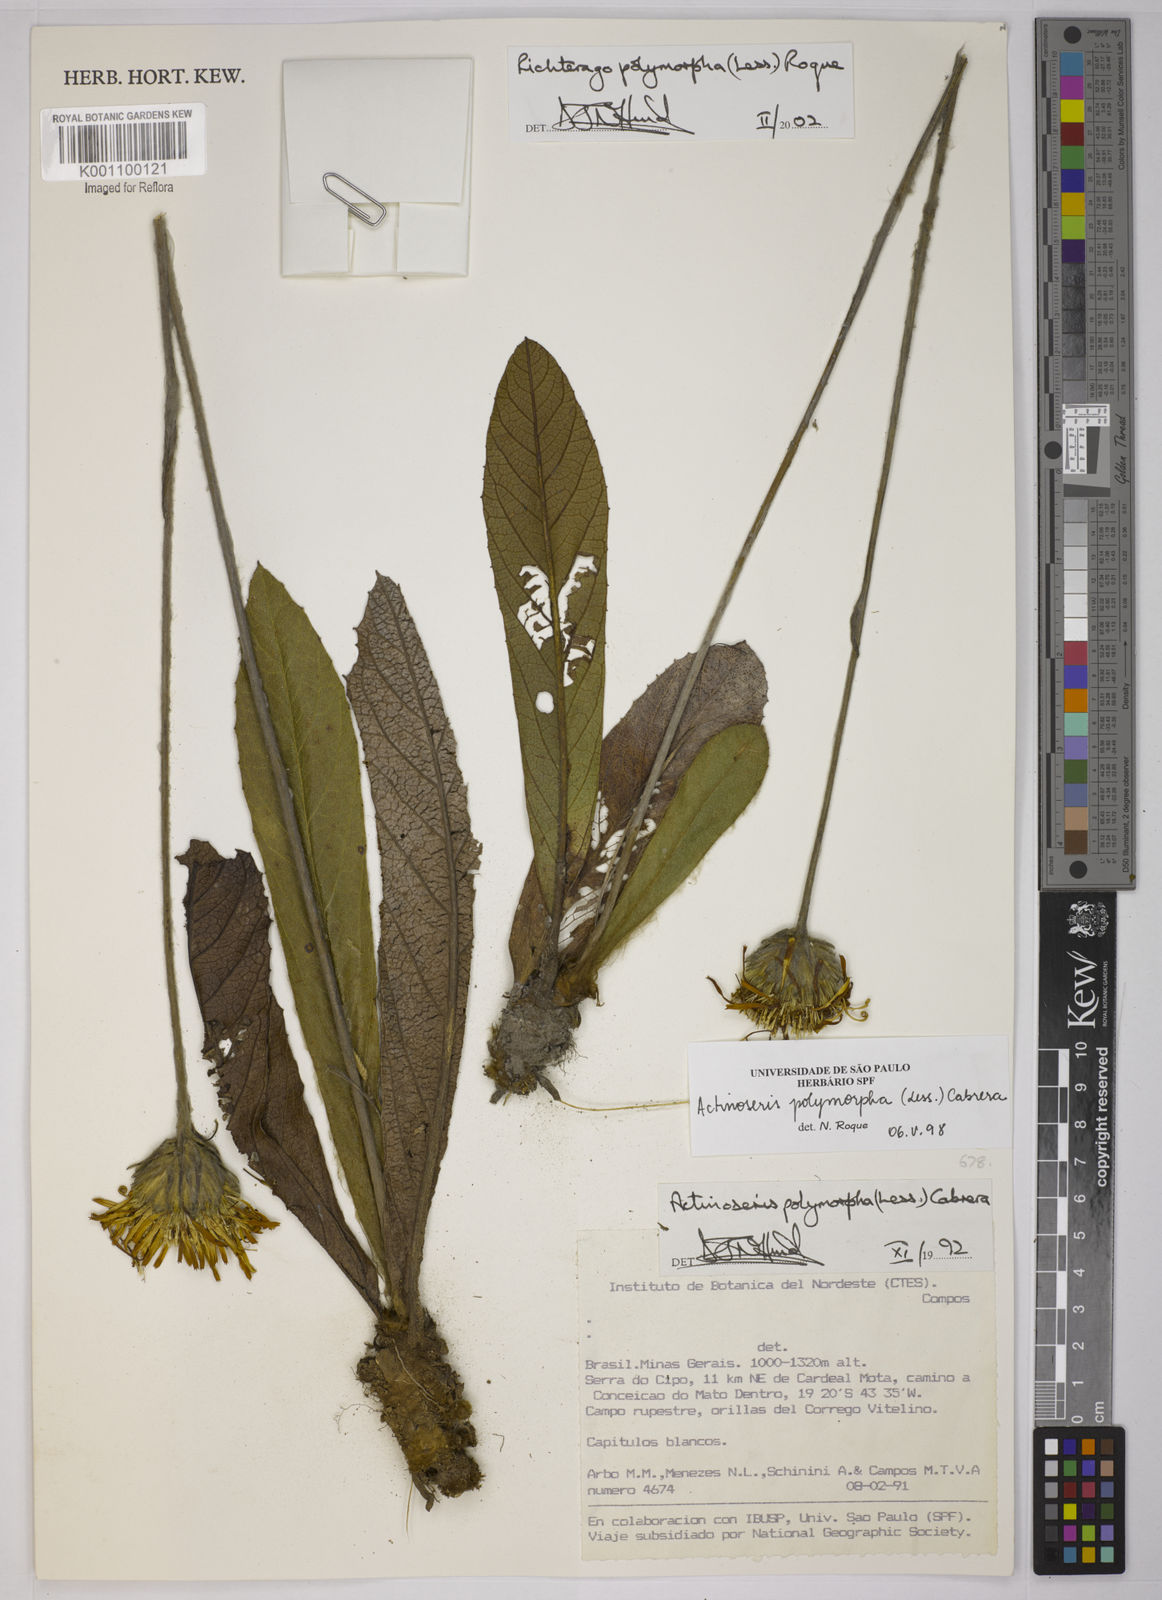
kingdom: Plantae
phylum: Tracheophyta
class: Magnoliopsida
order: Asterales
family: Asteraceae
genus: Richterago
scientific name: Richterago polymorpha
